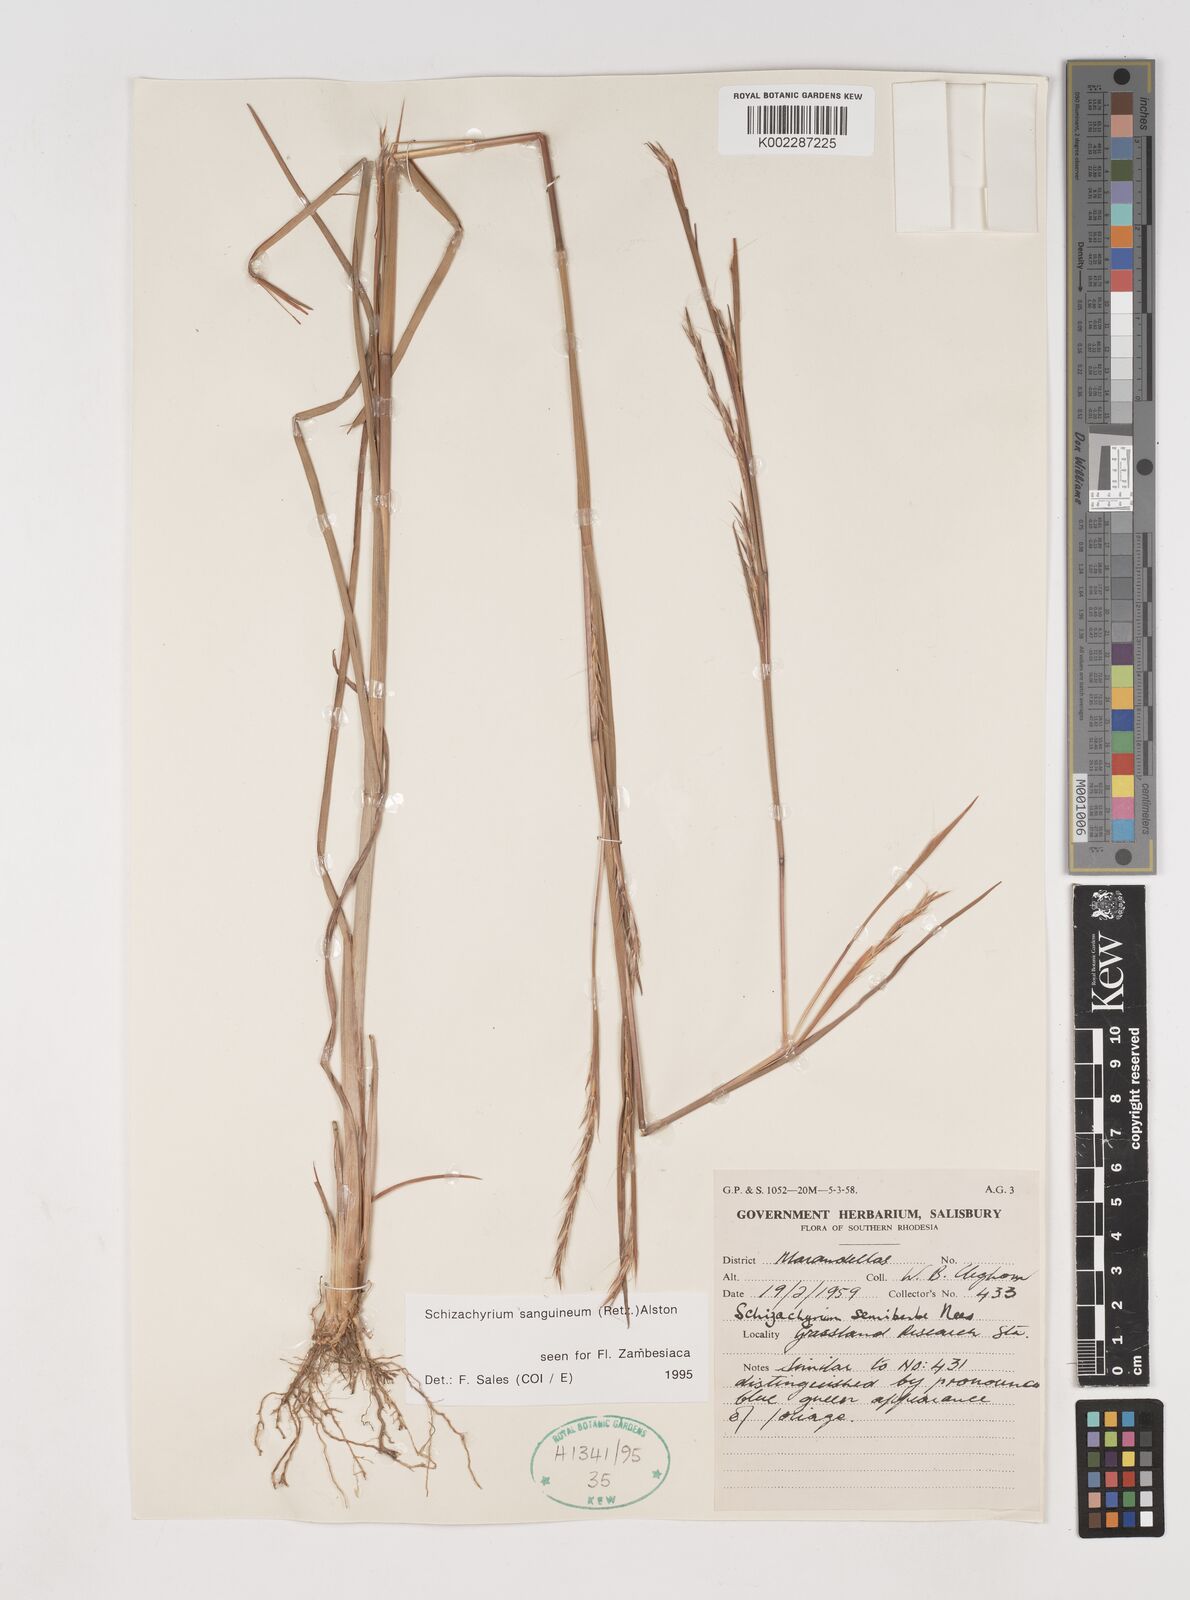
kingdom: Plantae
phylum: Tracheophyta
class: Liliopsida
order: Poales
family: Poaceae
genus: Schizachyrium
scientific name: Schizachyrium sanguineum
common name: Crimson bluestem
